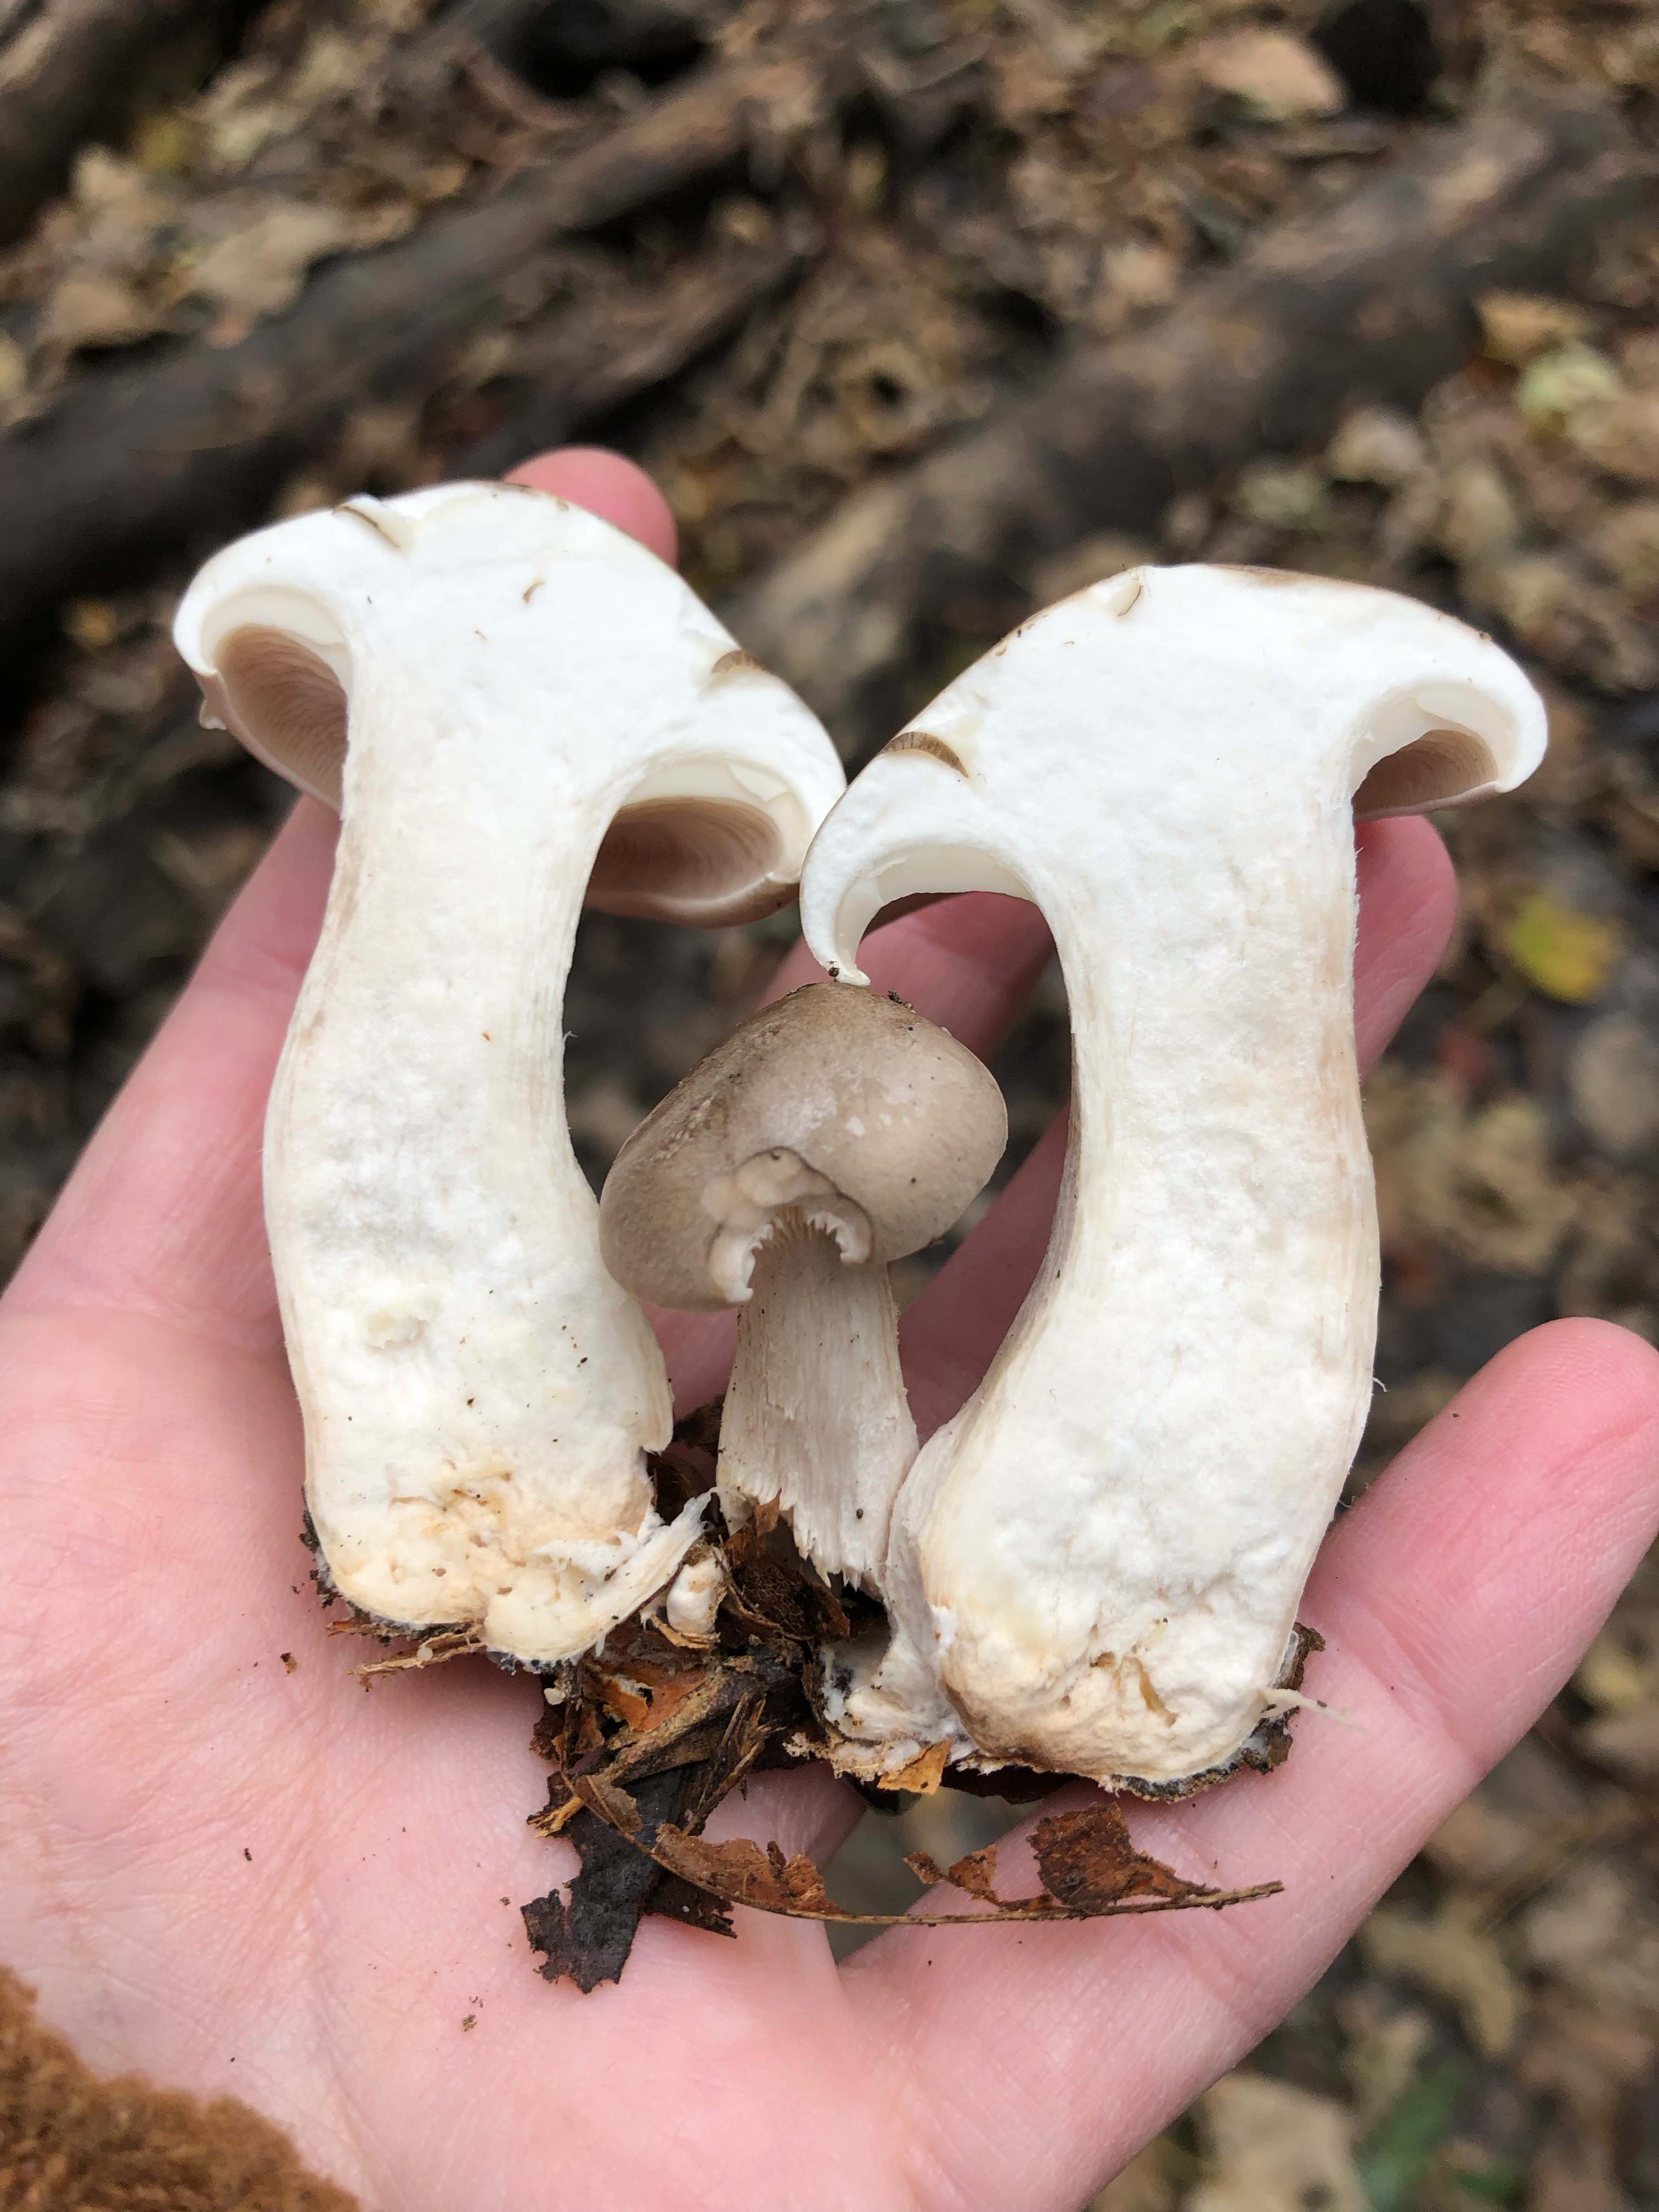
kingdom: Fungi
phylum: Basidiomycota
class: Agaricomycetes
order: Agaricales
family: Tricholomataceae
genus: Clitocybe
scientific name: Clitocybe nebularis
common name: tåge-tragthat
